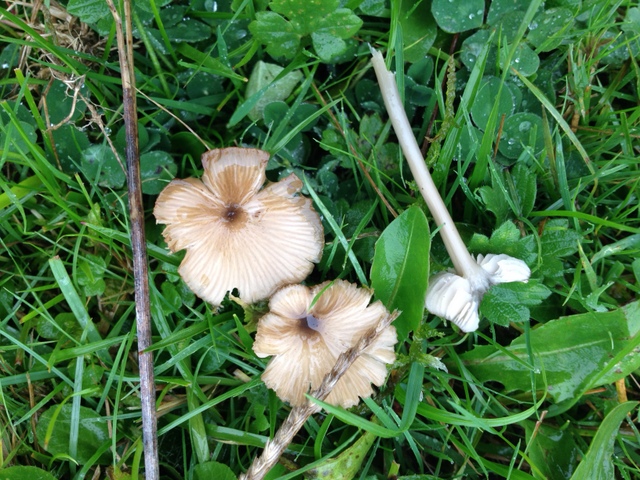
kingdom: Fungi
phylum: Basidiomycota
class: Agaricomycetes
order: Agaricales
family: Entolomataceae
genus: Entoloma
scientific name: Entoloma exile
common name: rødplettet rødblad
